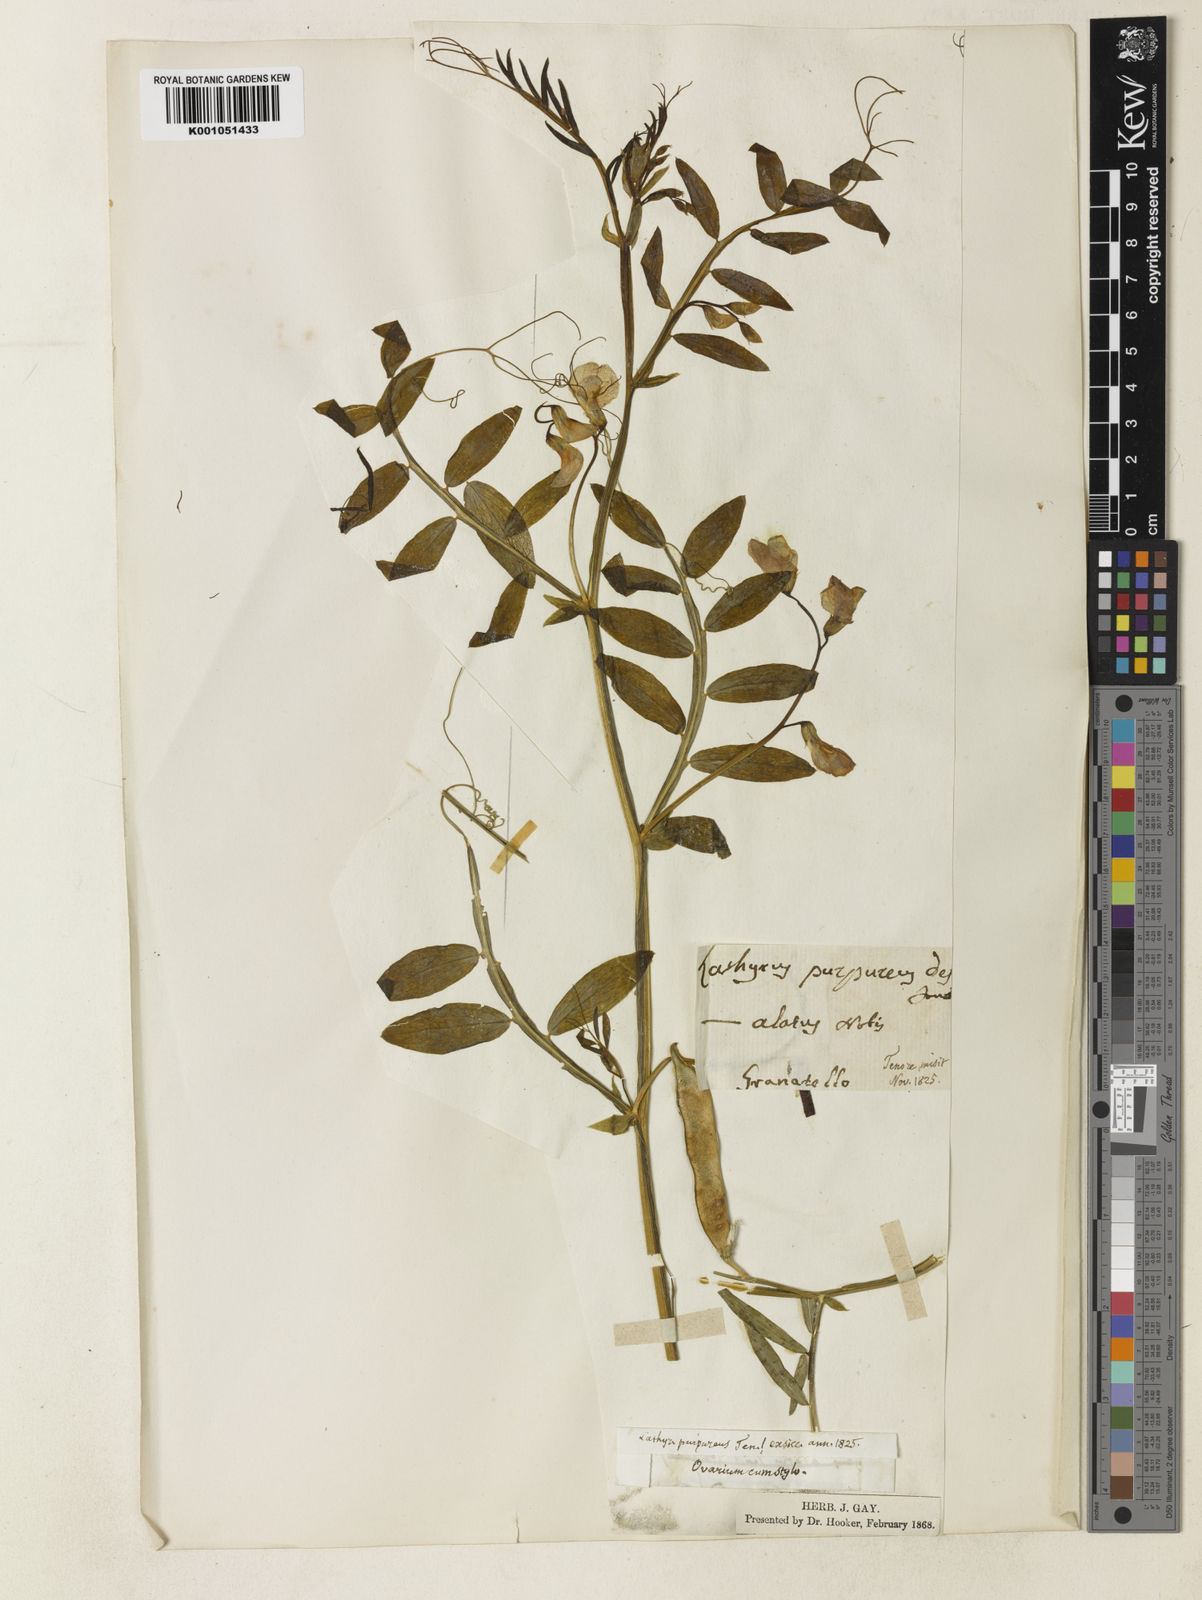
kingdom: Plantae
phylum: Tracheophyta
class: Magnoliopsida
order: Fabales
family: Fabaceae
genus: Lathyrus
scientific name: Lathyrus clymenum
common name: Spanish vetchling
